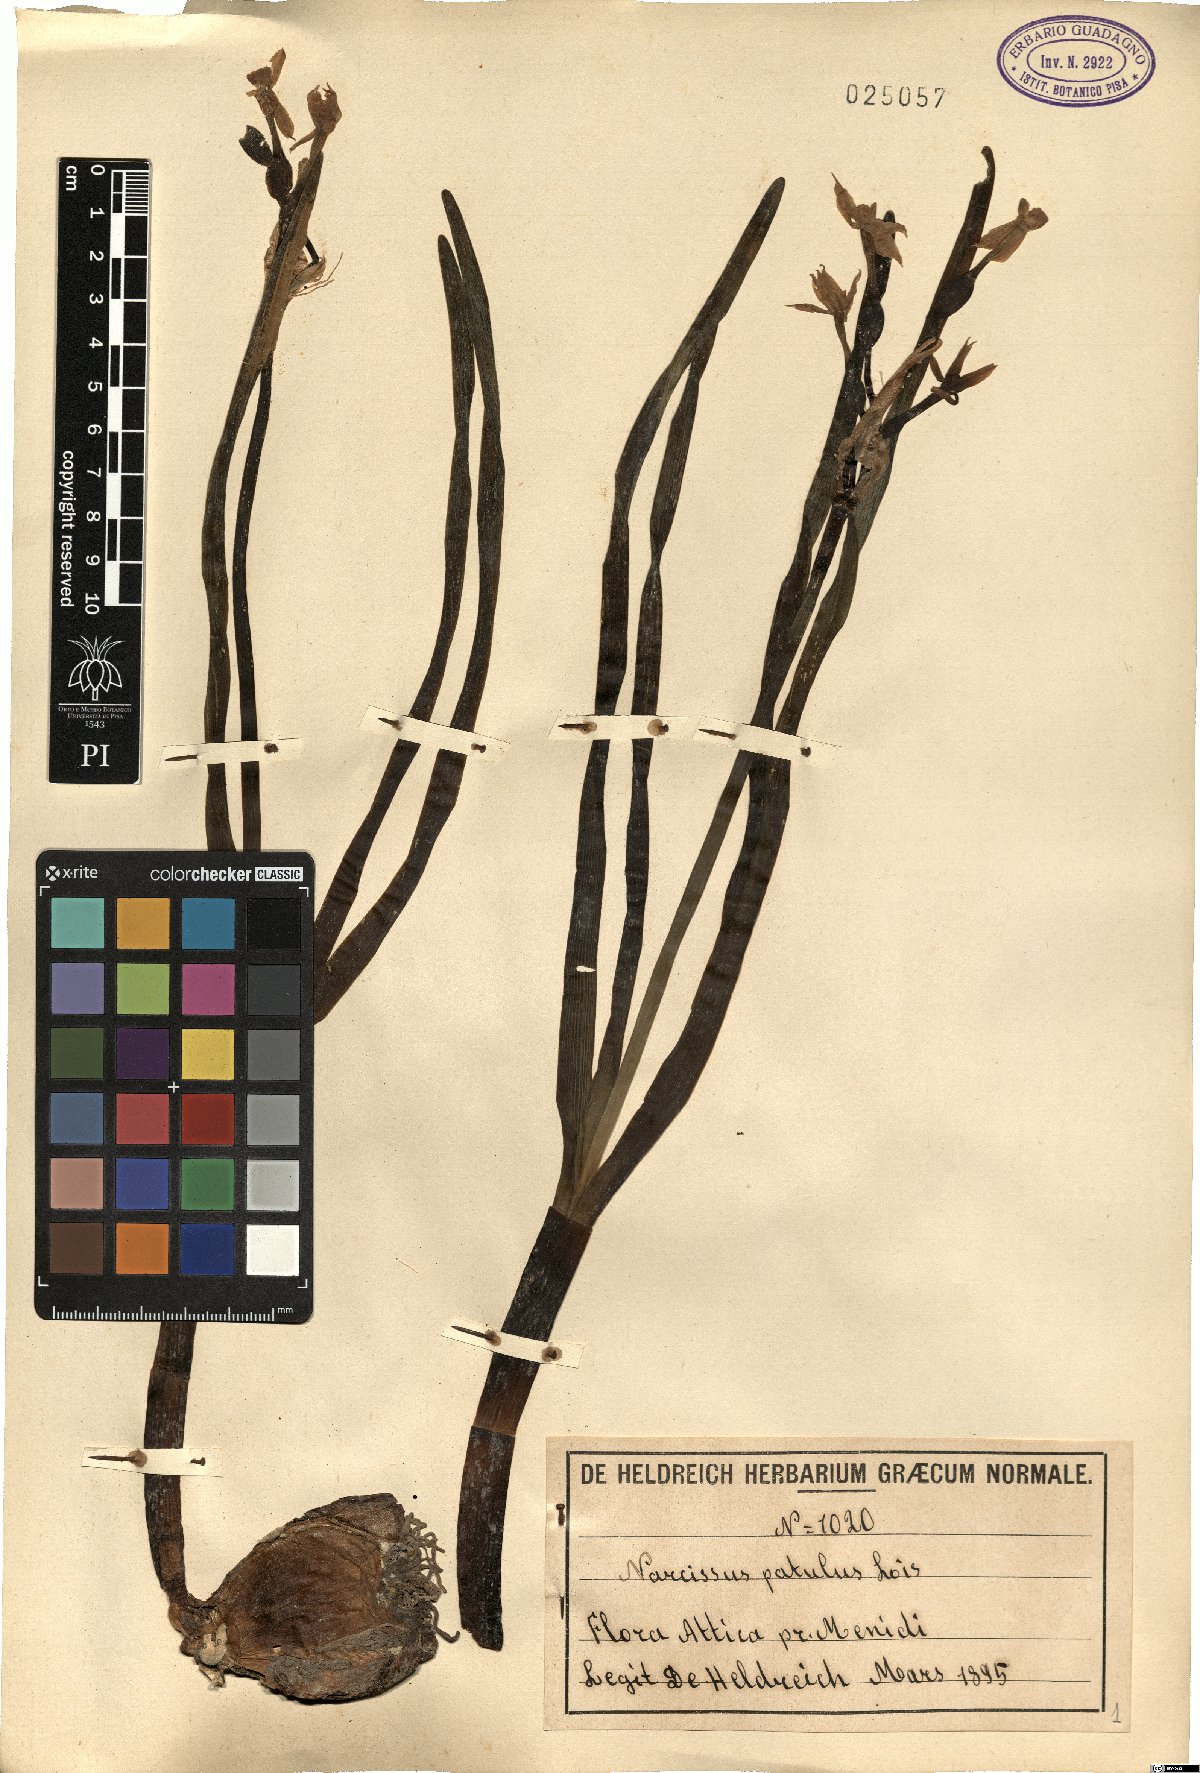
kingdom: Plantae
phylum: Tracheophyta
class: Liliopsida
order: Asparagales
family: Amaryllidaceae
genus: Narcissus
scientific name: Narcissus tazetta
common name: Bunch-flowered daffodil
